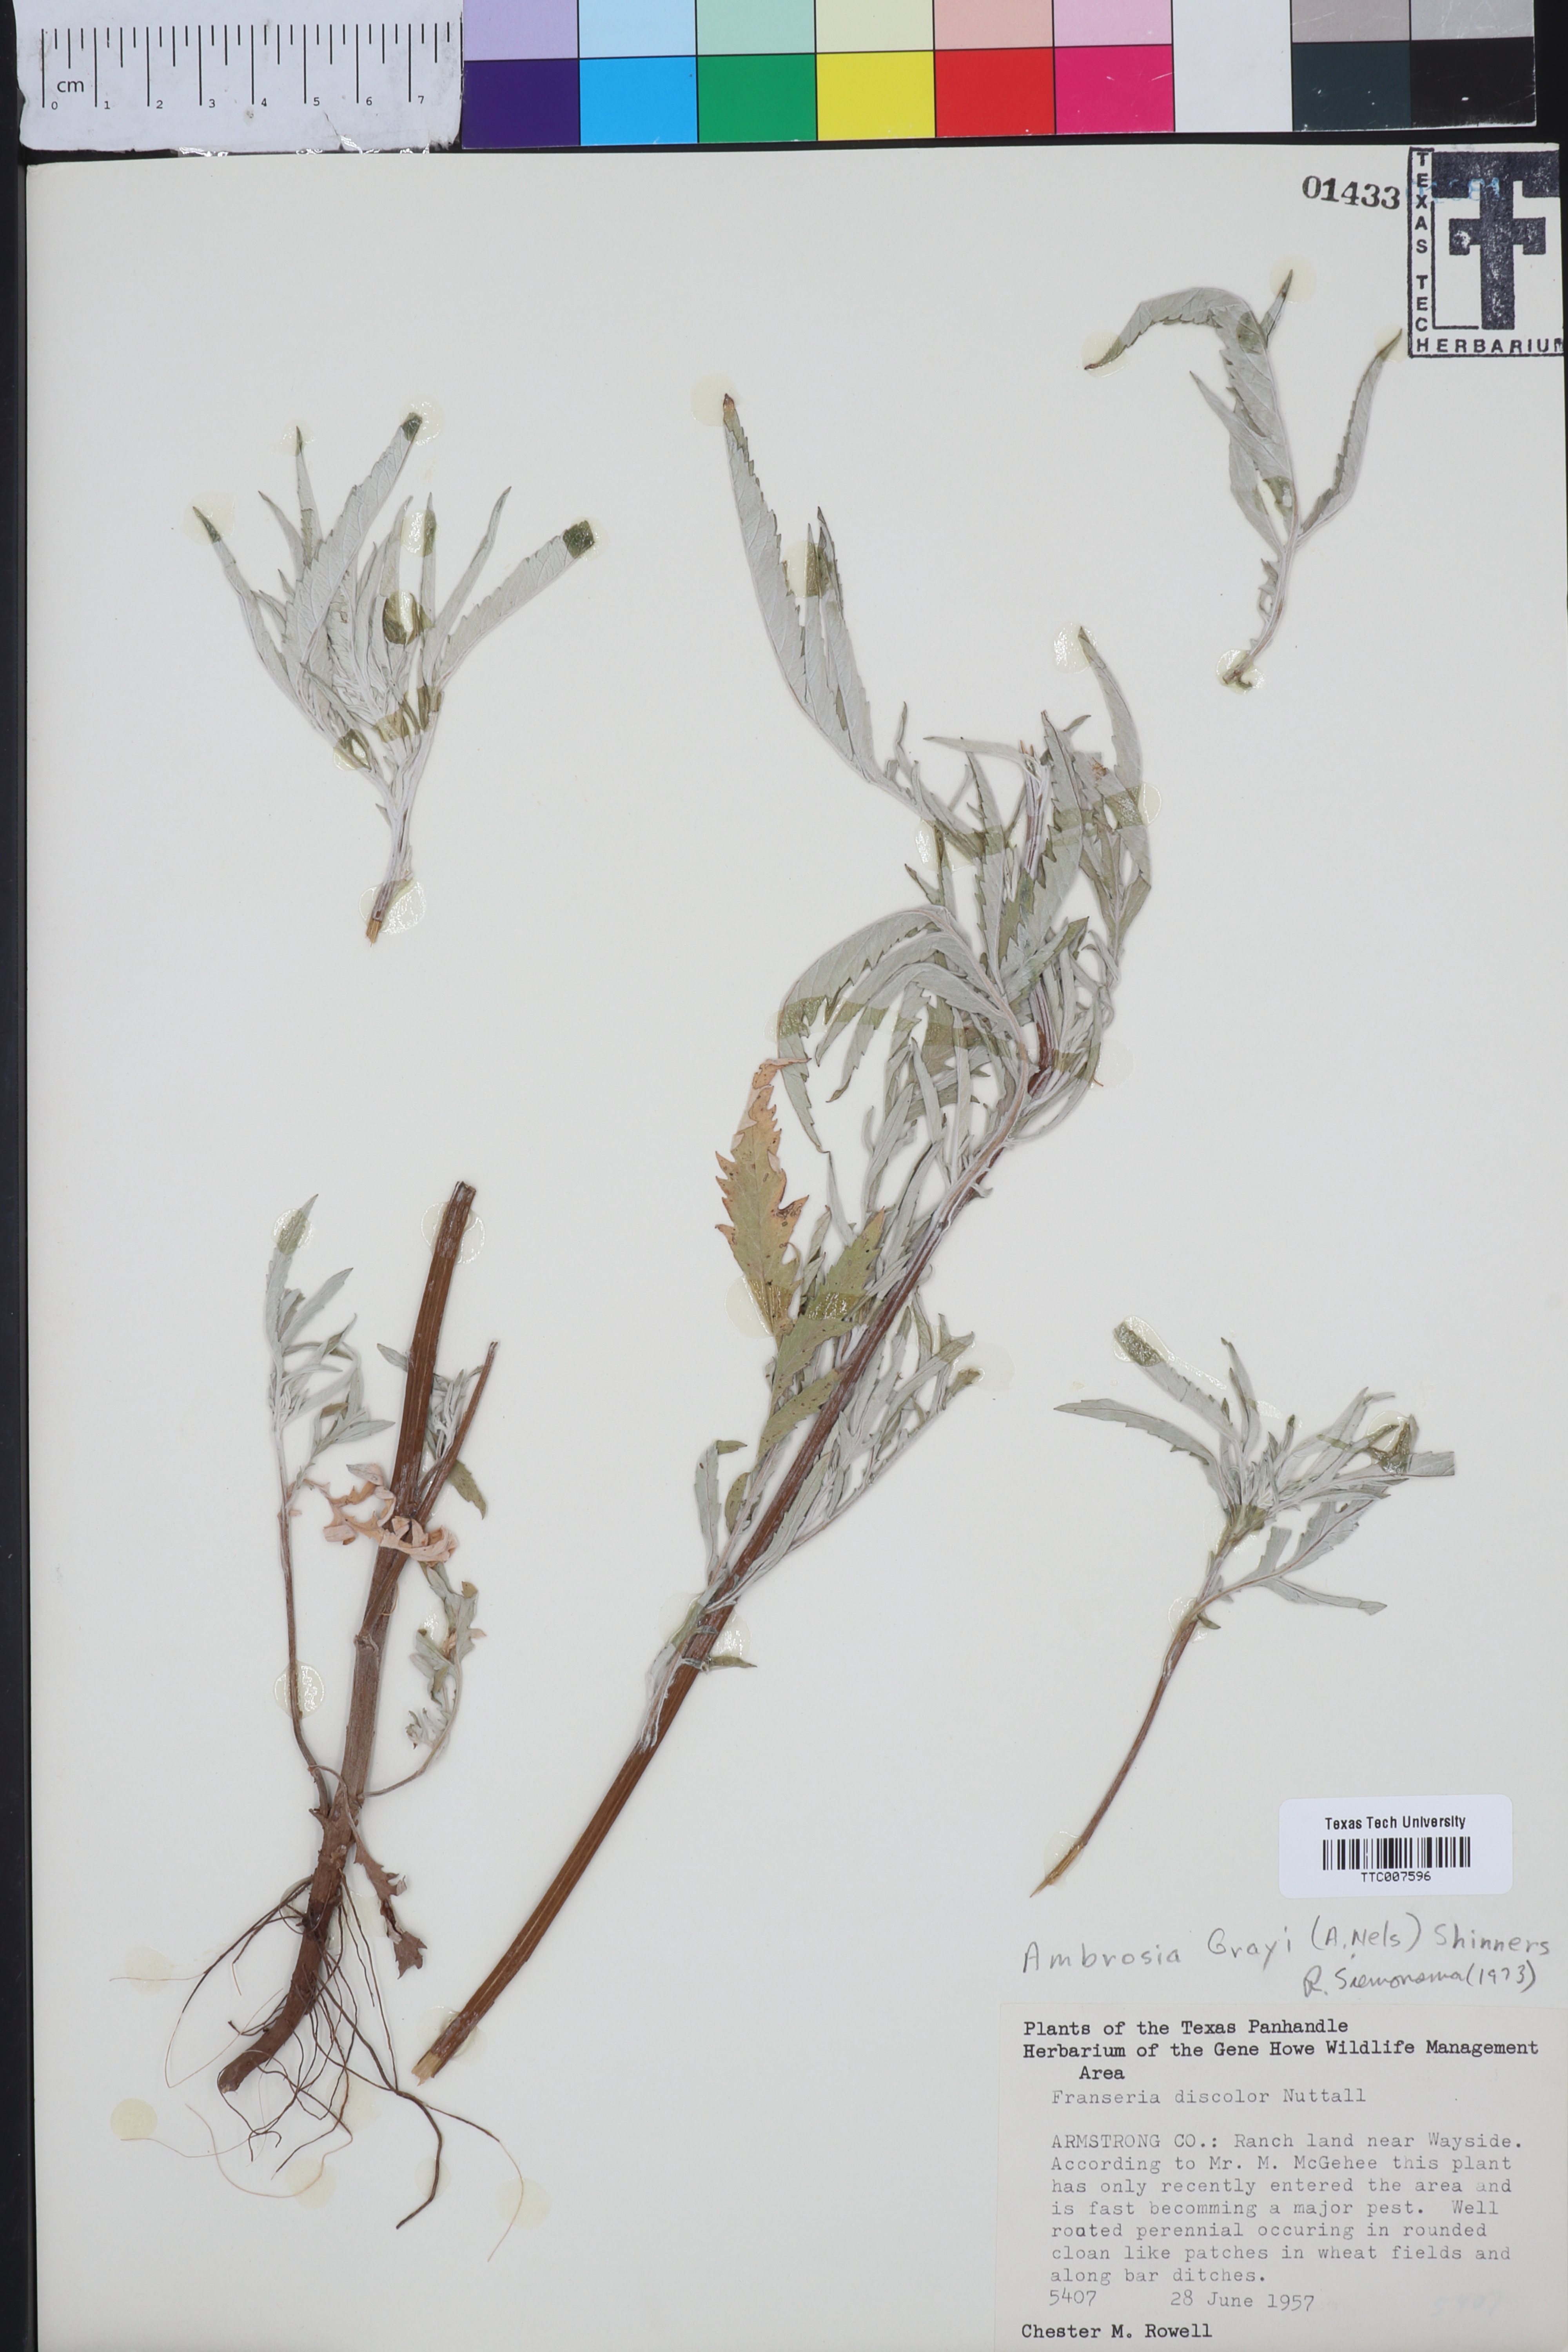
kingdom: Plantae
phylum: Tracheophyta
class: Magnoliopsida
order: Asterales
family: Asteraceae
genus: Ambrosia
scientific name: Ambrosia grayi
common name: Bur ragweed
